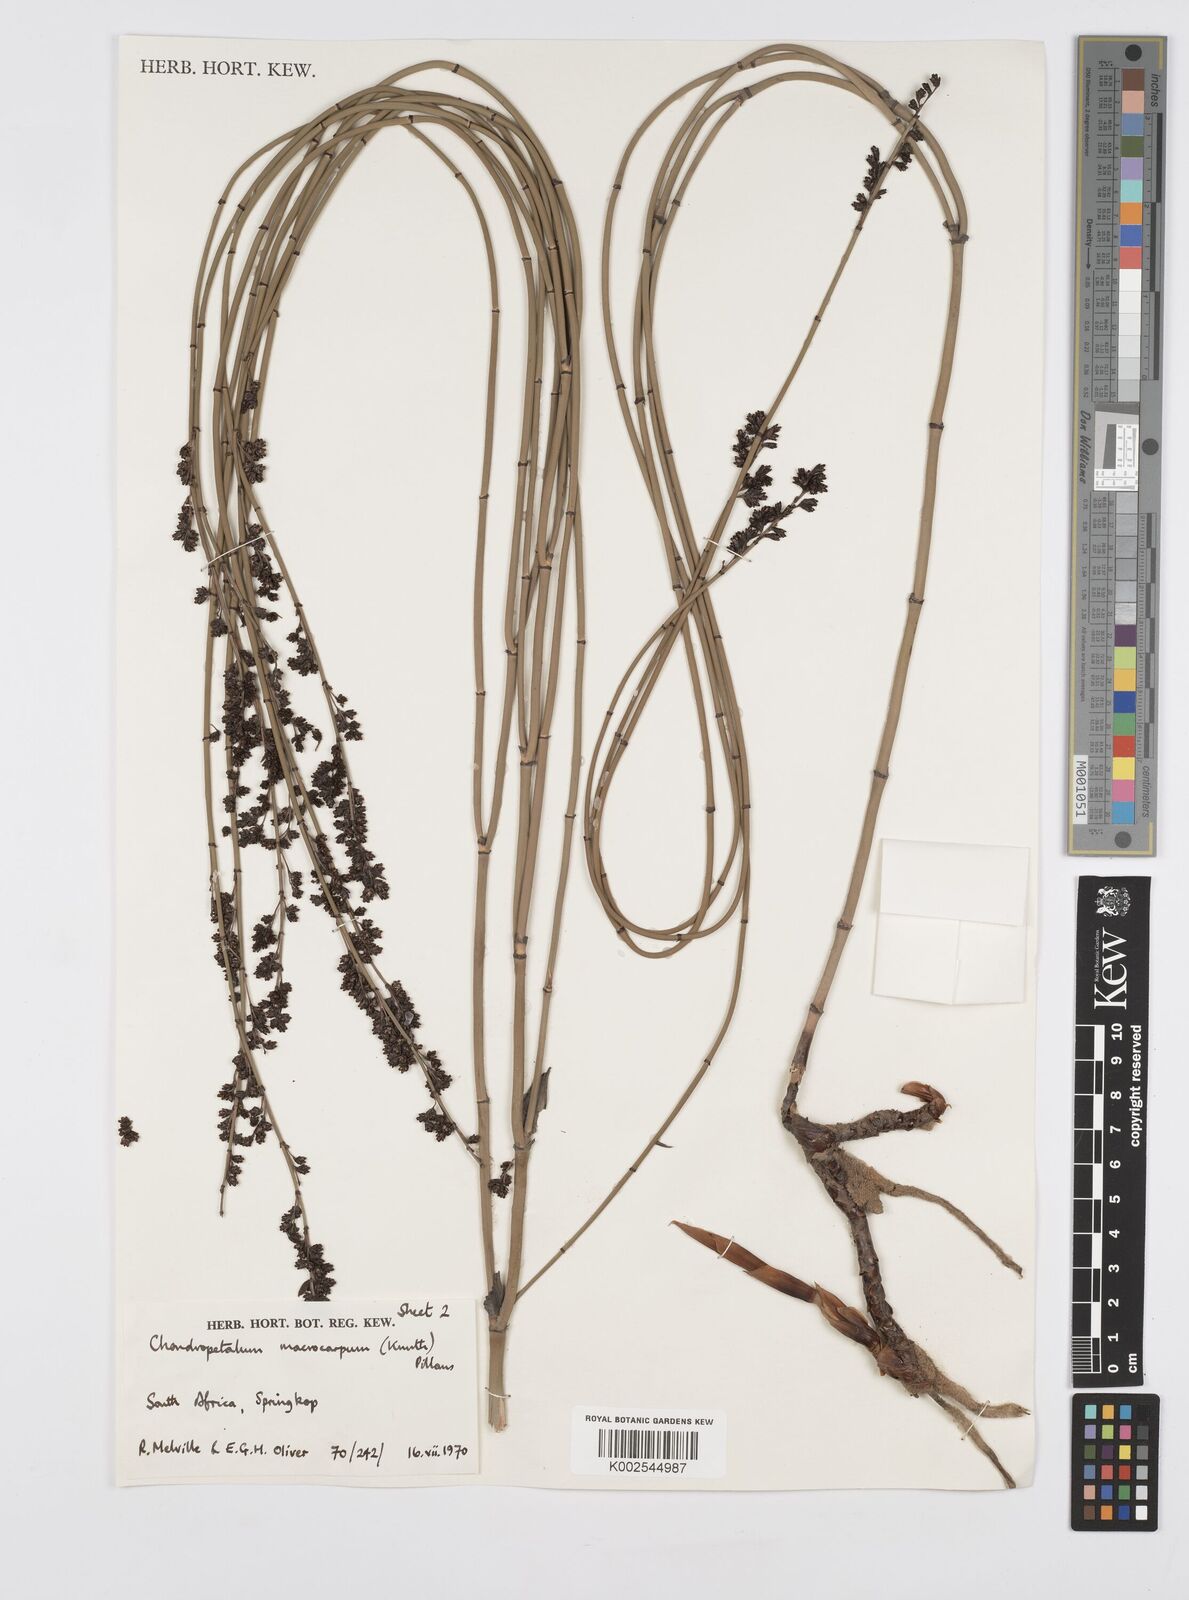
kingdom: Plantae
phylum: Tracheophyta
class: Liliopsida
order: Poales
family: Restionaceae
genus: Elegia
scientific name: Elegia macrocarpa
